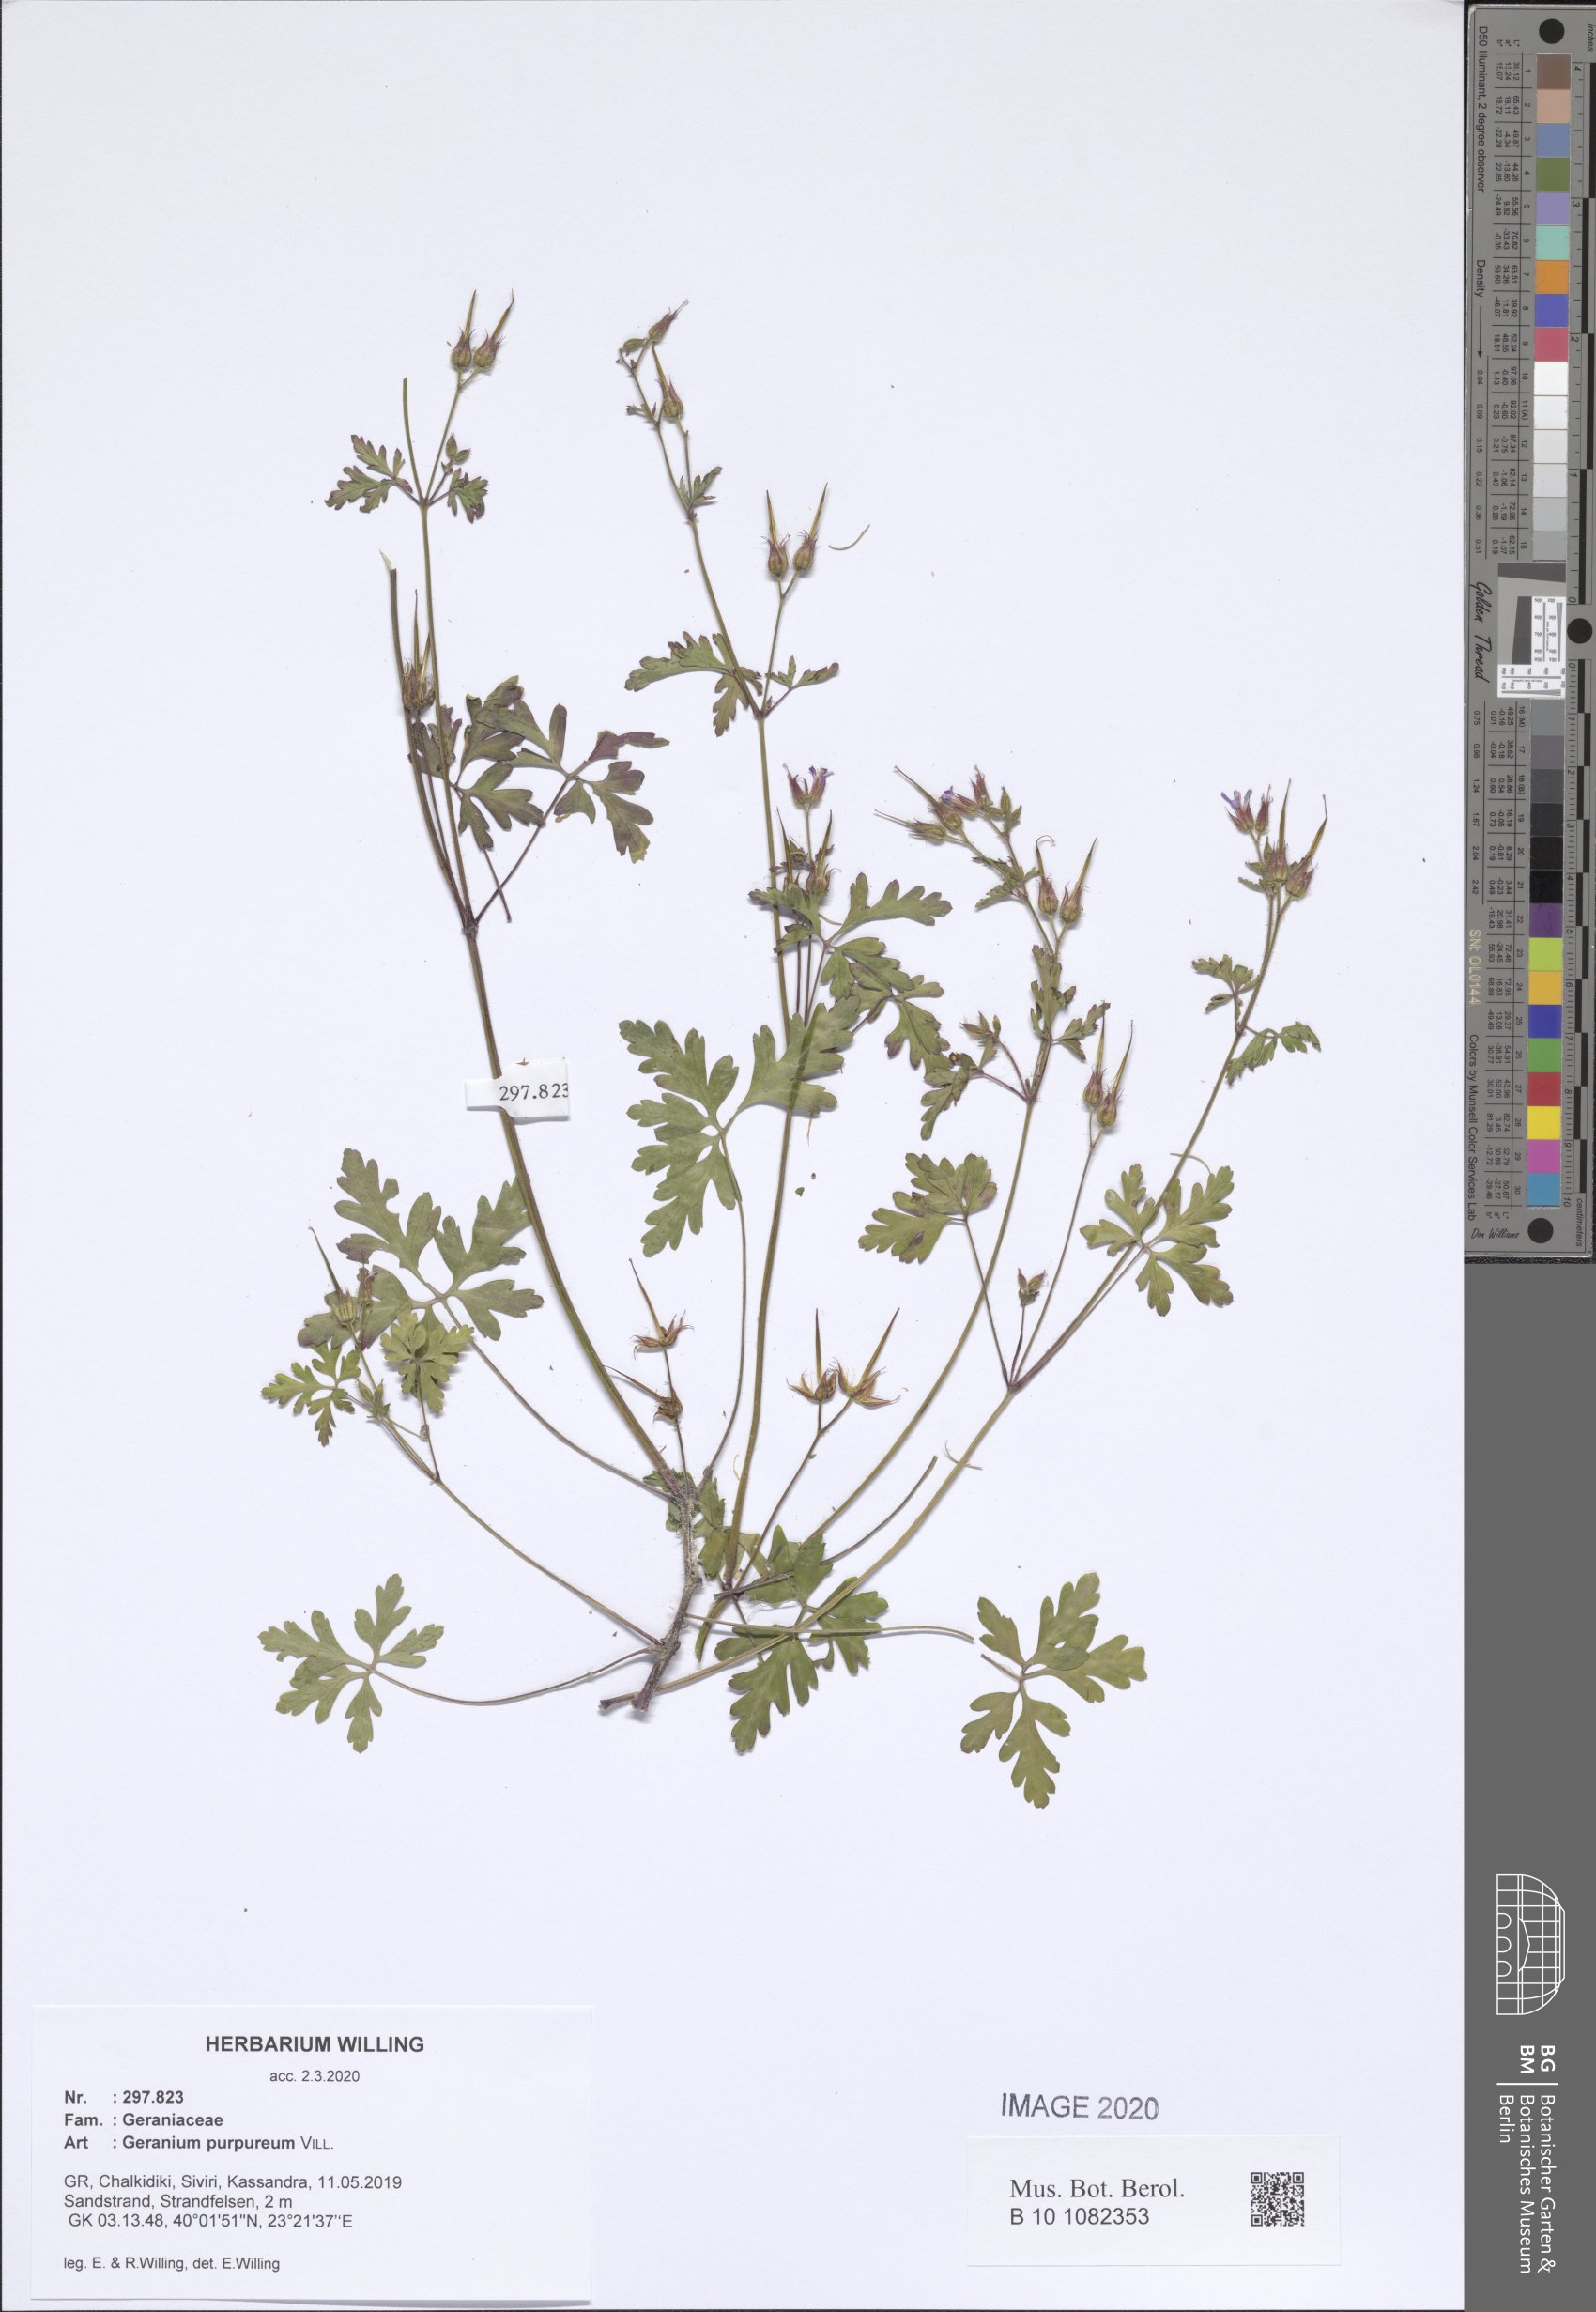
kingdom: Plantae
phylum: Tracheophyta
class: Magnoliopsida
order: Geraniales
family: Geraniaceae
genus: Geranium
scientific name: Geranium purpureum
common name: Little-robin
